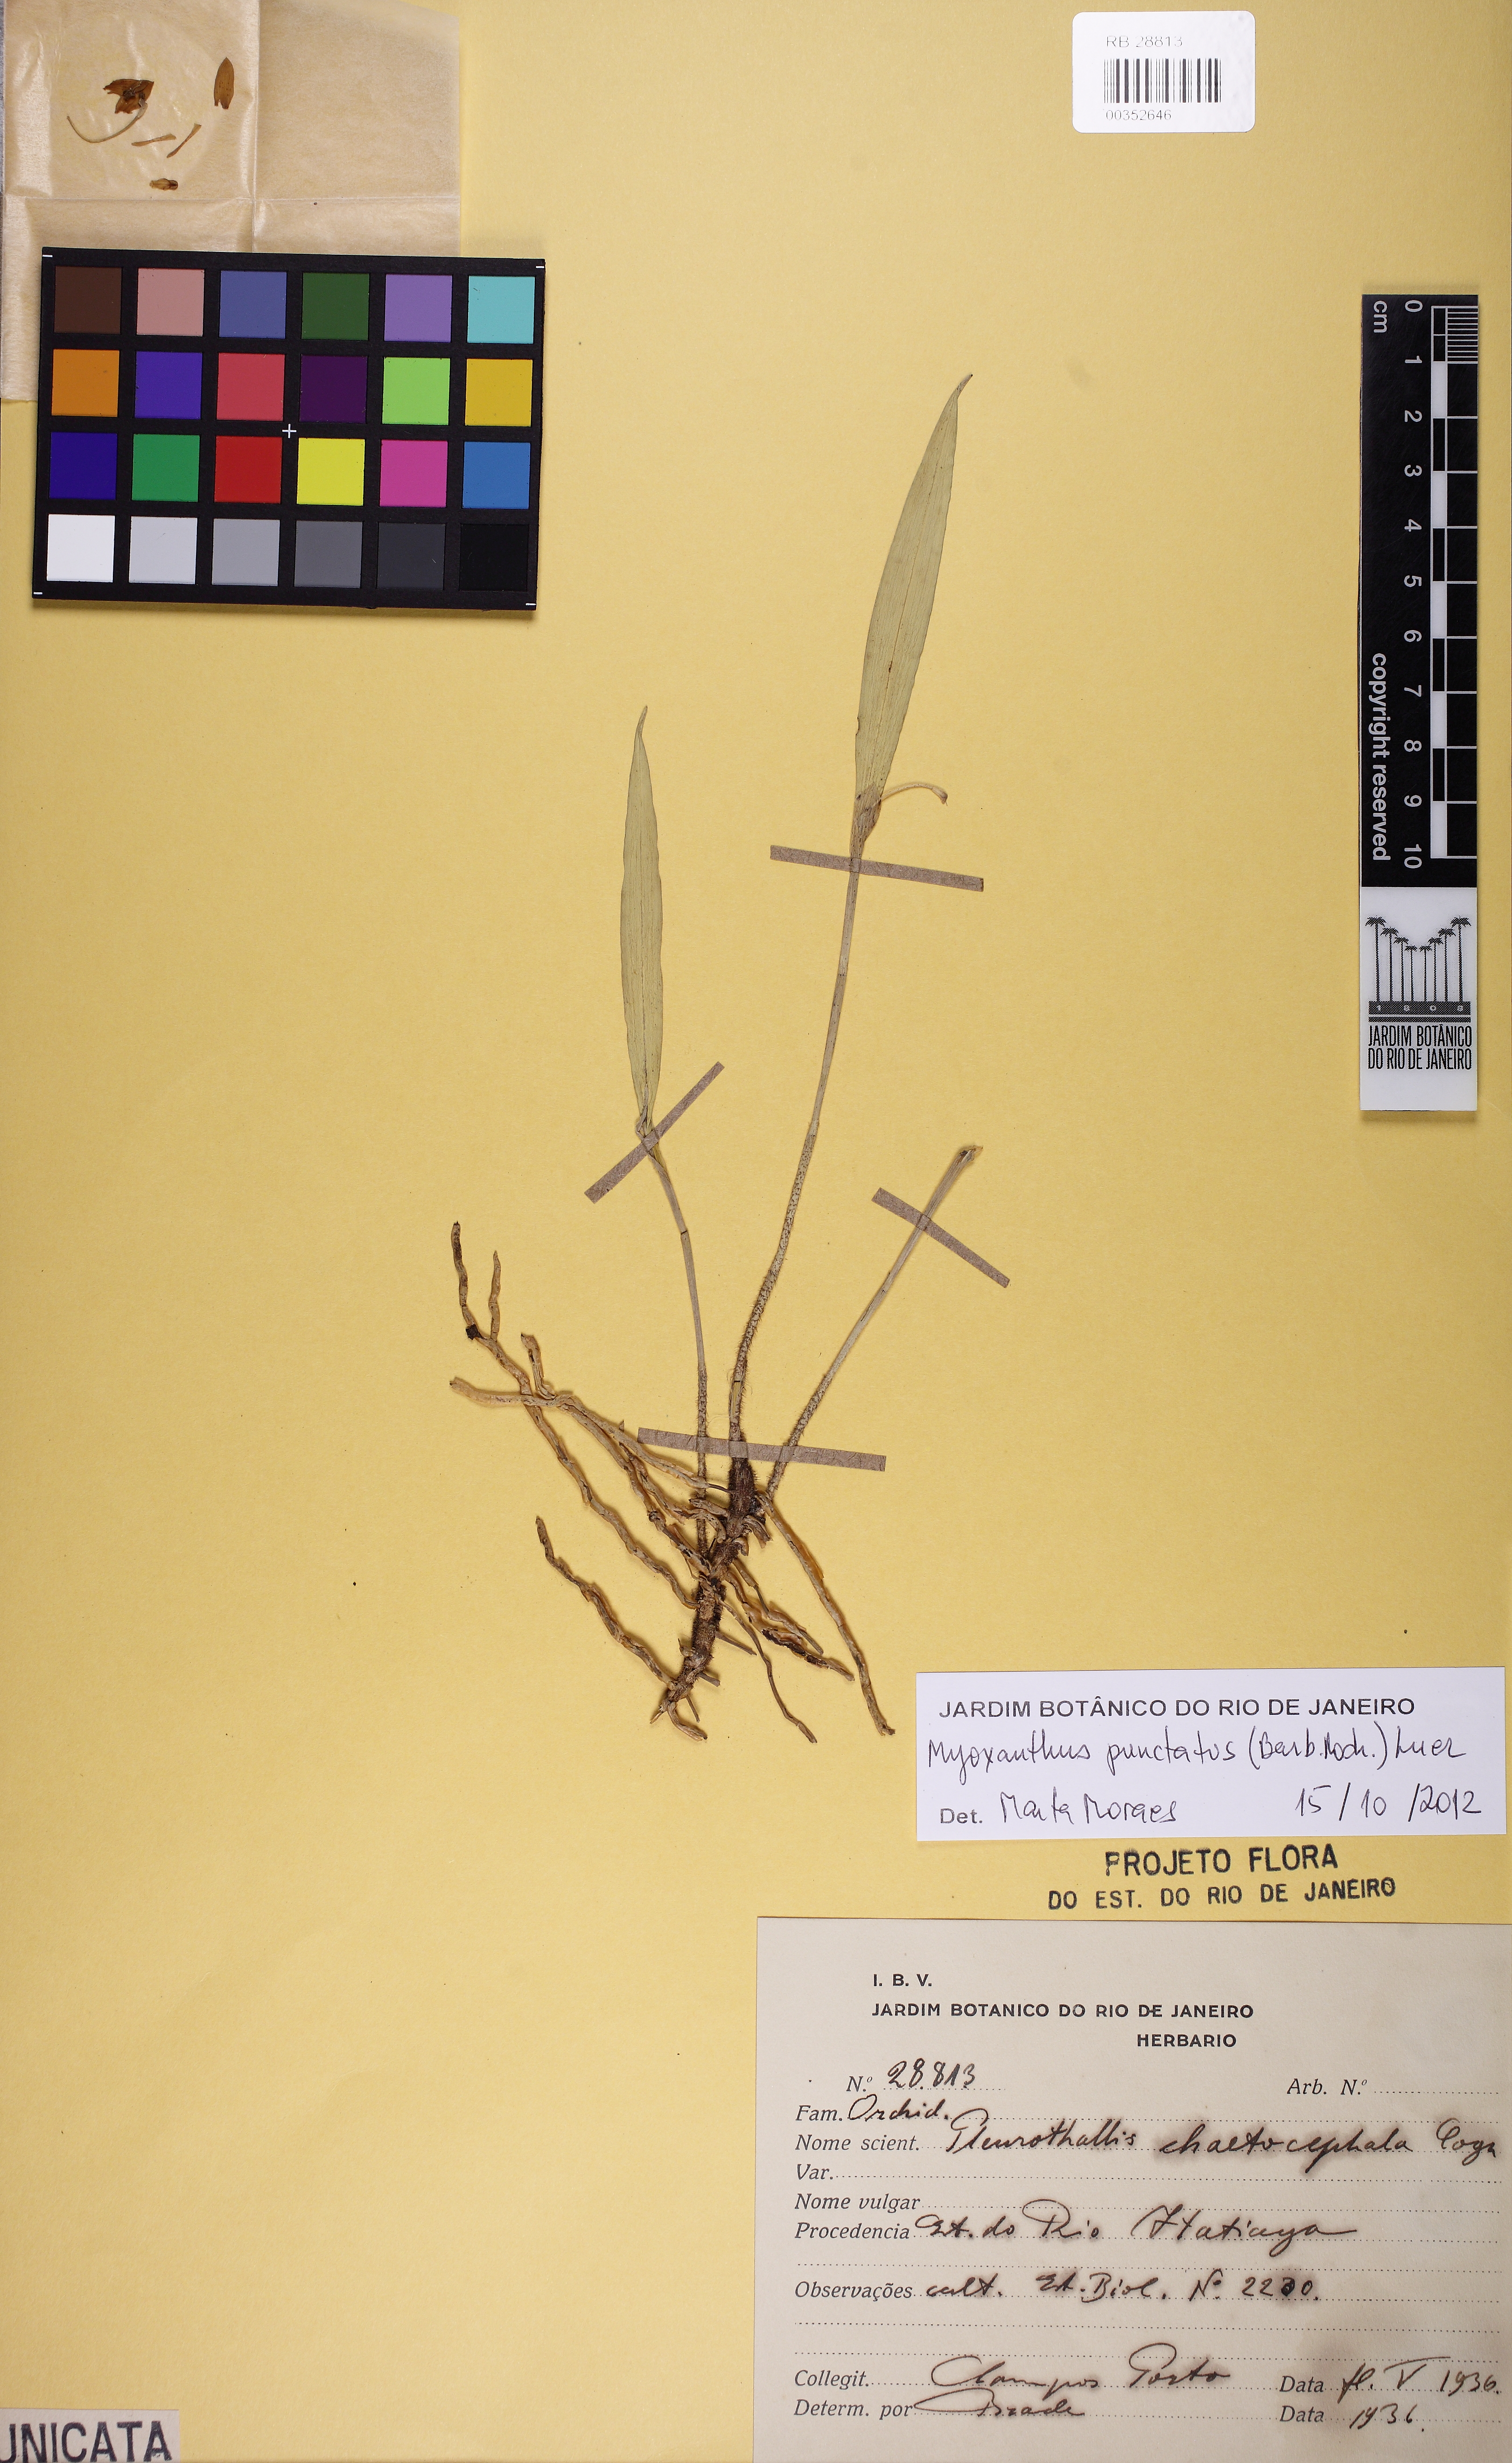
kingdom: Plantae
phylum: Tracheophyta
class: Liliopsida
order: Asparagales
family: Orchidaceae
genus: Myoxanthus
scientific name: Myoxanthus punctatus
